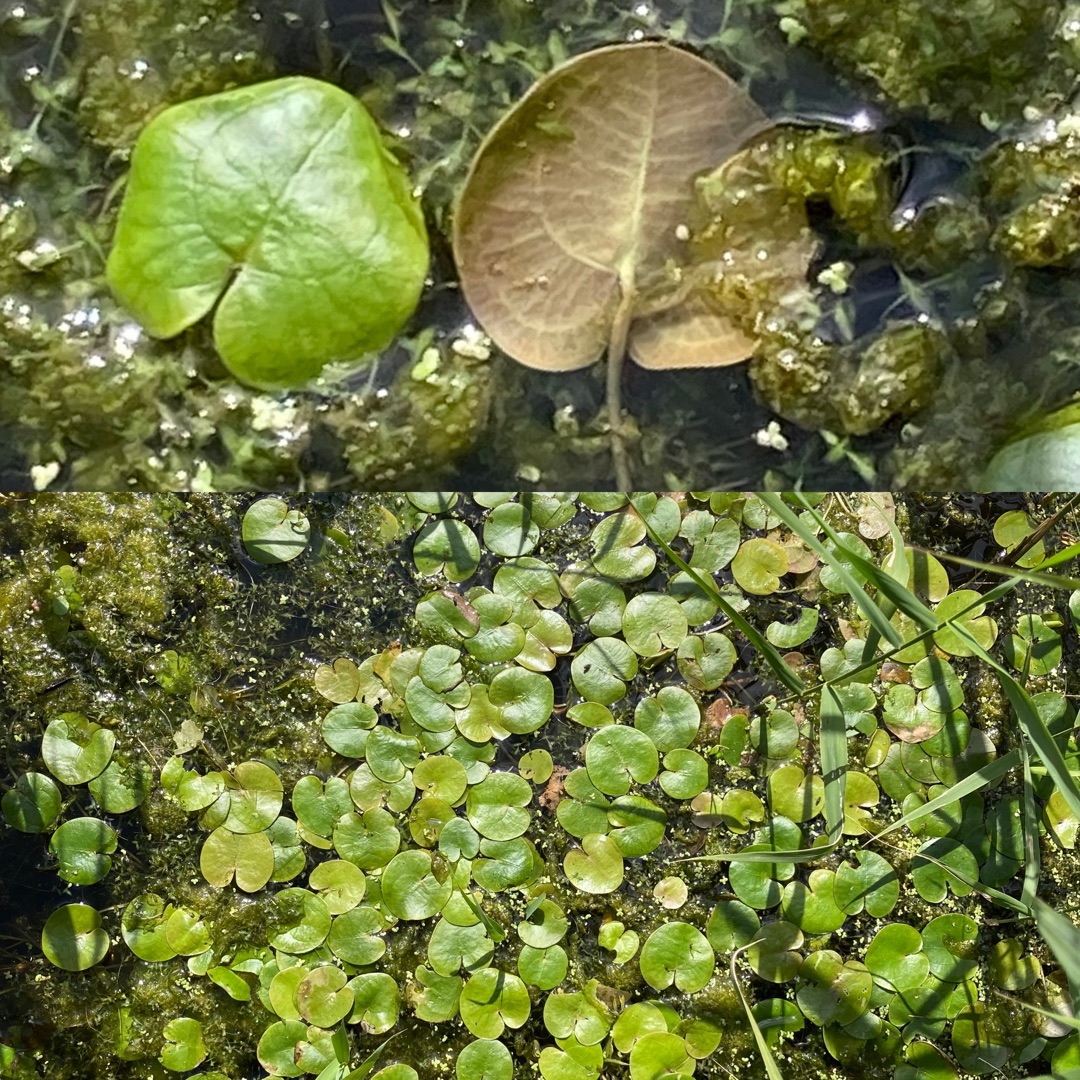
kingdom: Plantae
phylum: Tracheophyta
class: Liliopsida
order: Alismatales
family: Hydrocharitaceae
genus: Hydrocharis
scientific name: Hydrocharis morsus-ranae
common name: Frøbid
